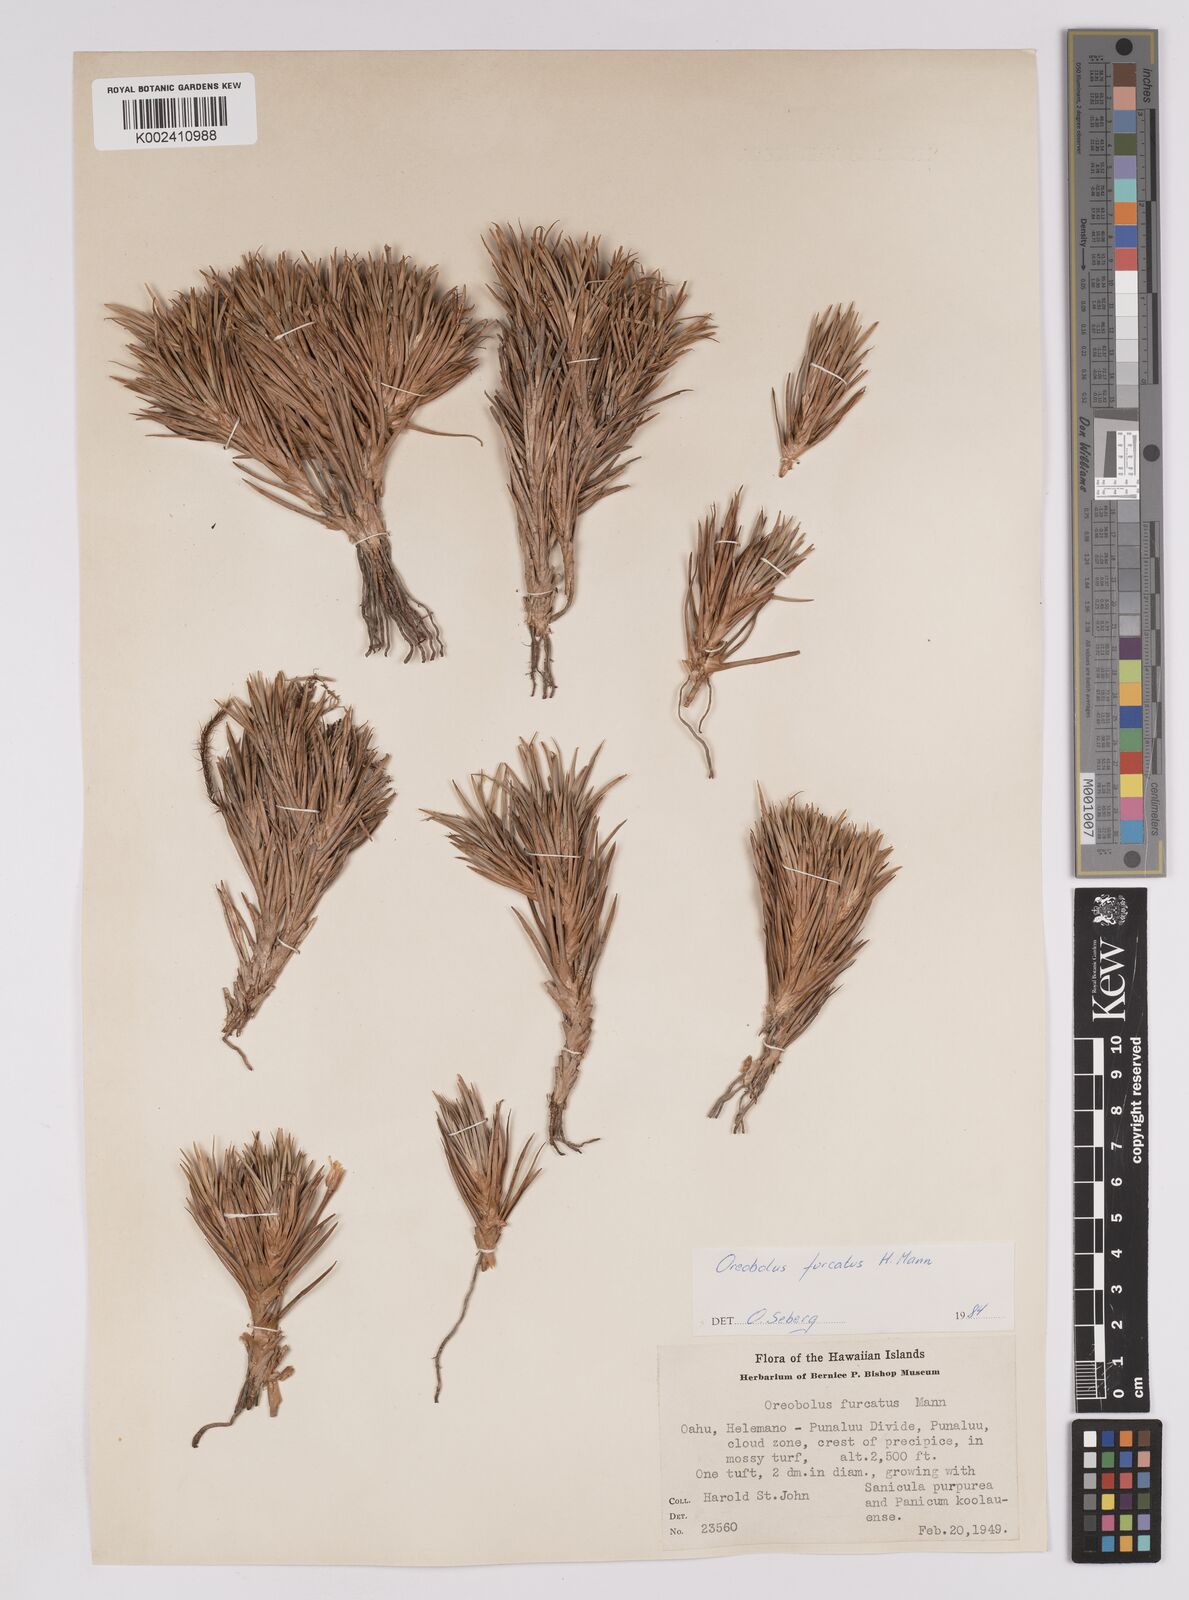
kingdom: Plantae
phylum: Tracheophyta
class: Liliopsida
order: Poales
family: Cyperaceae
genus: Oreobolus
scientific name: Oreobolus furcatus
